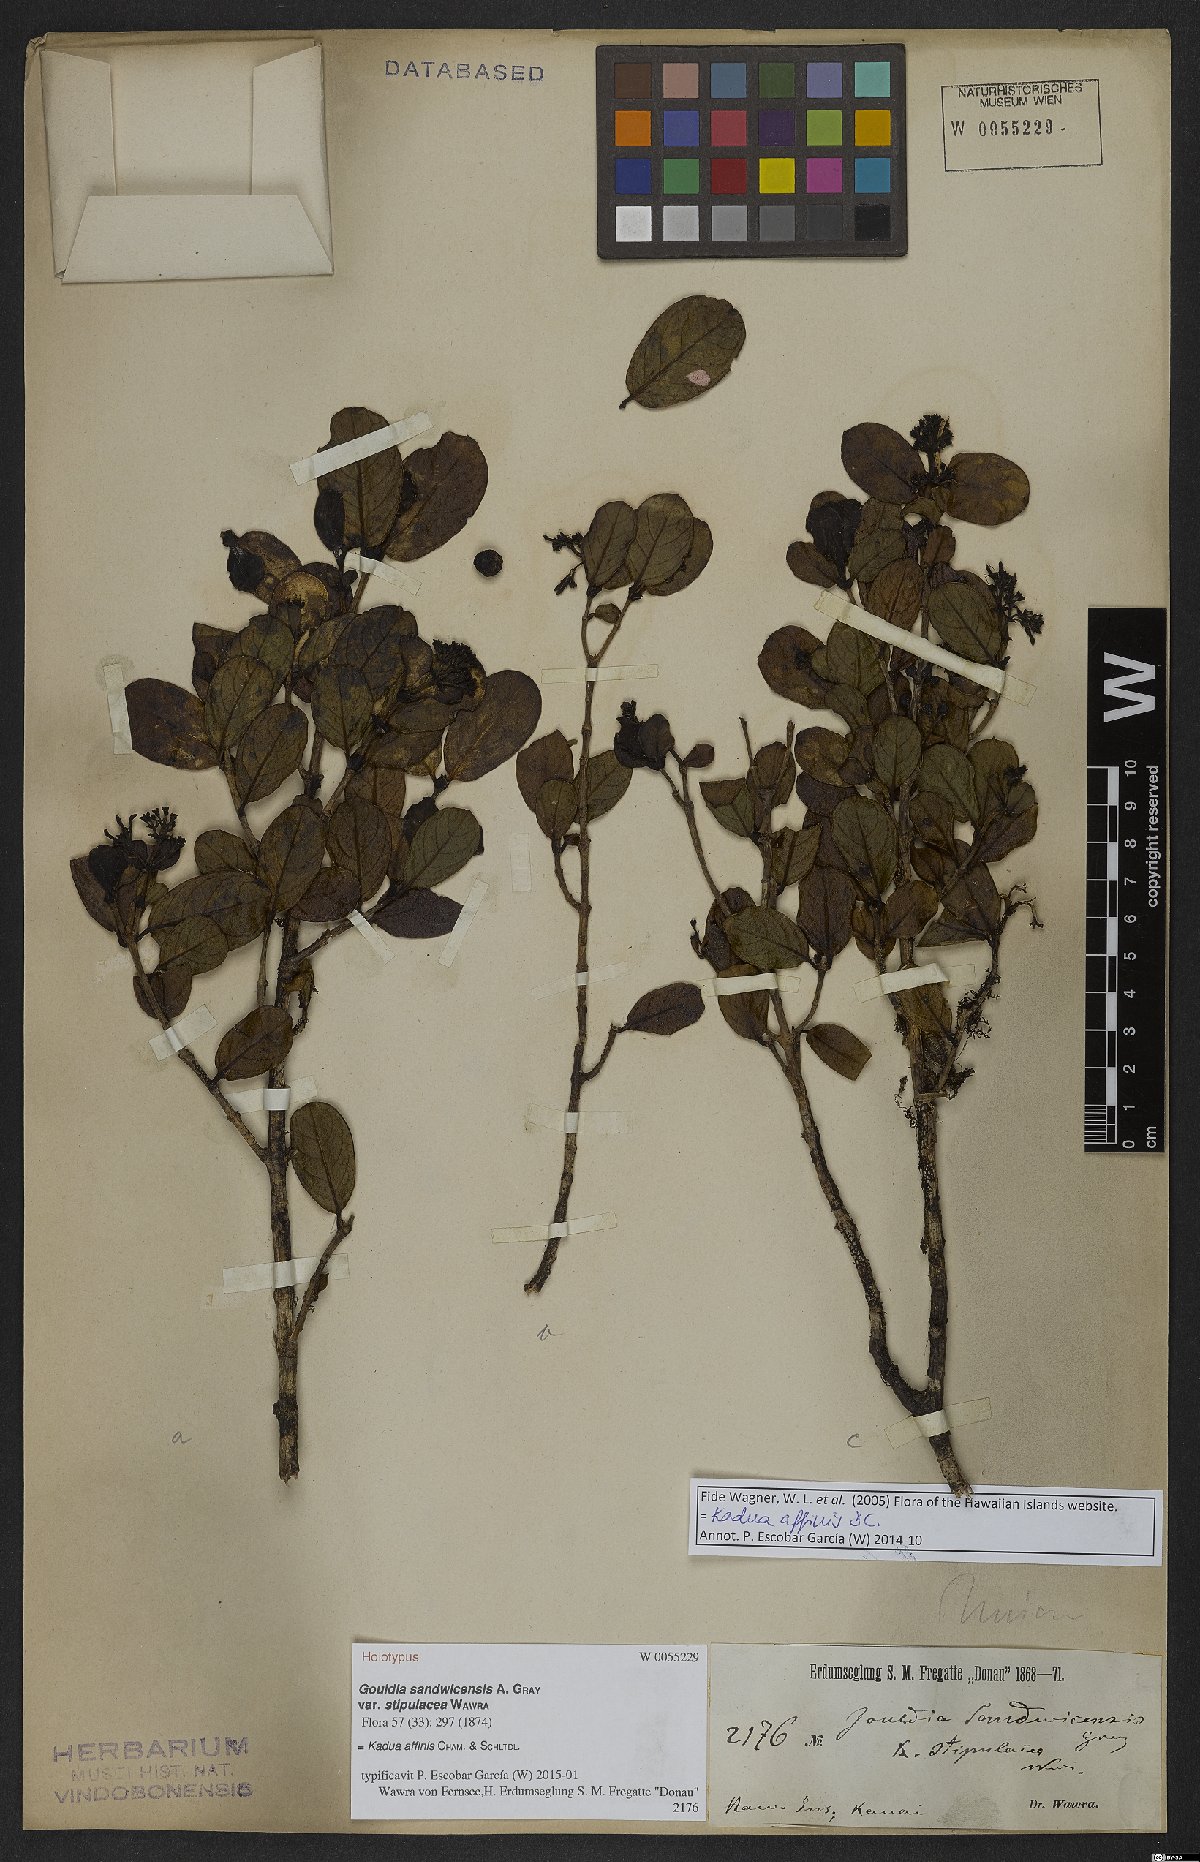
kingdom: Plantae
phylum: Tracheophyta
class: Magnoliopsida
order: Gentianales
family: Rubiaceae
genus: Kadua
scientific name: Kadua affinis
